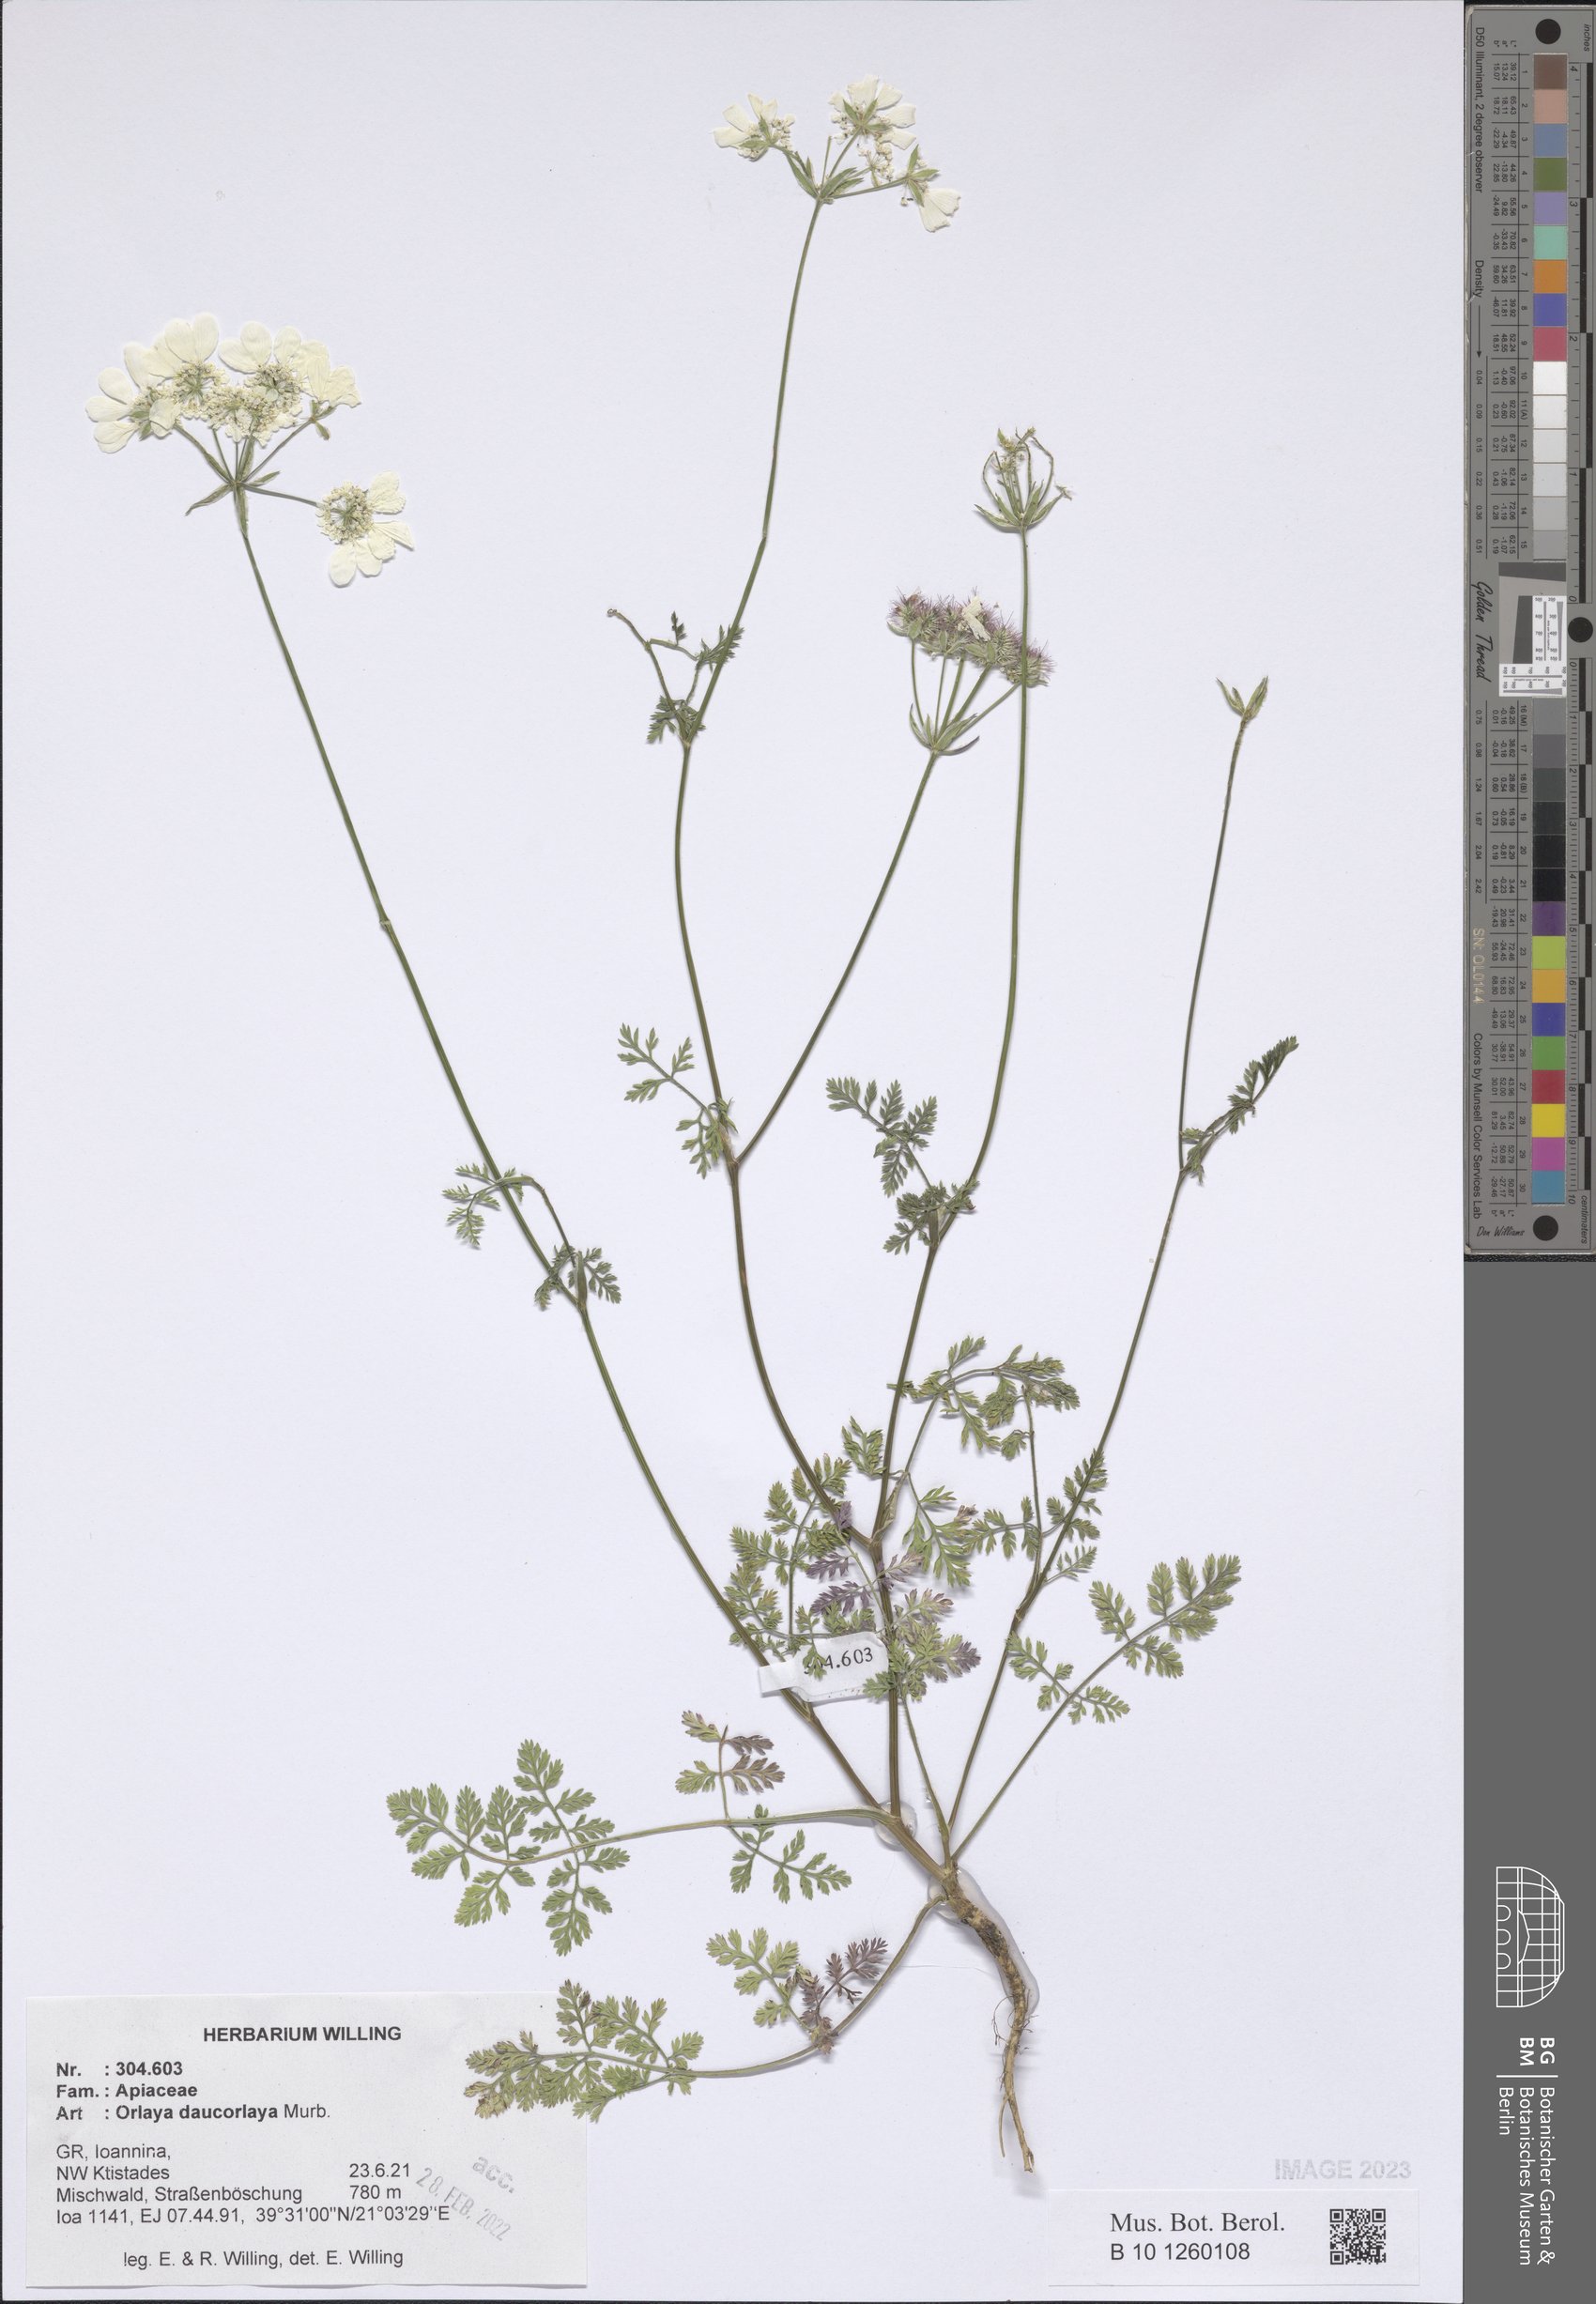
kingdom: Plantae
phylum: Tracheophyta
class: Magnoliopsida
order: Apiales
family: Apiaceae
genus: Orlaya
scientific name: Orlaya daucorlaya
